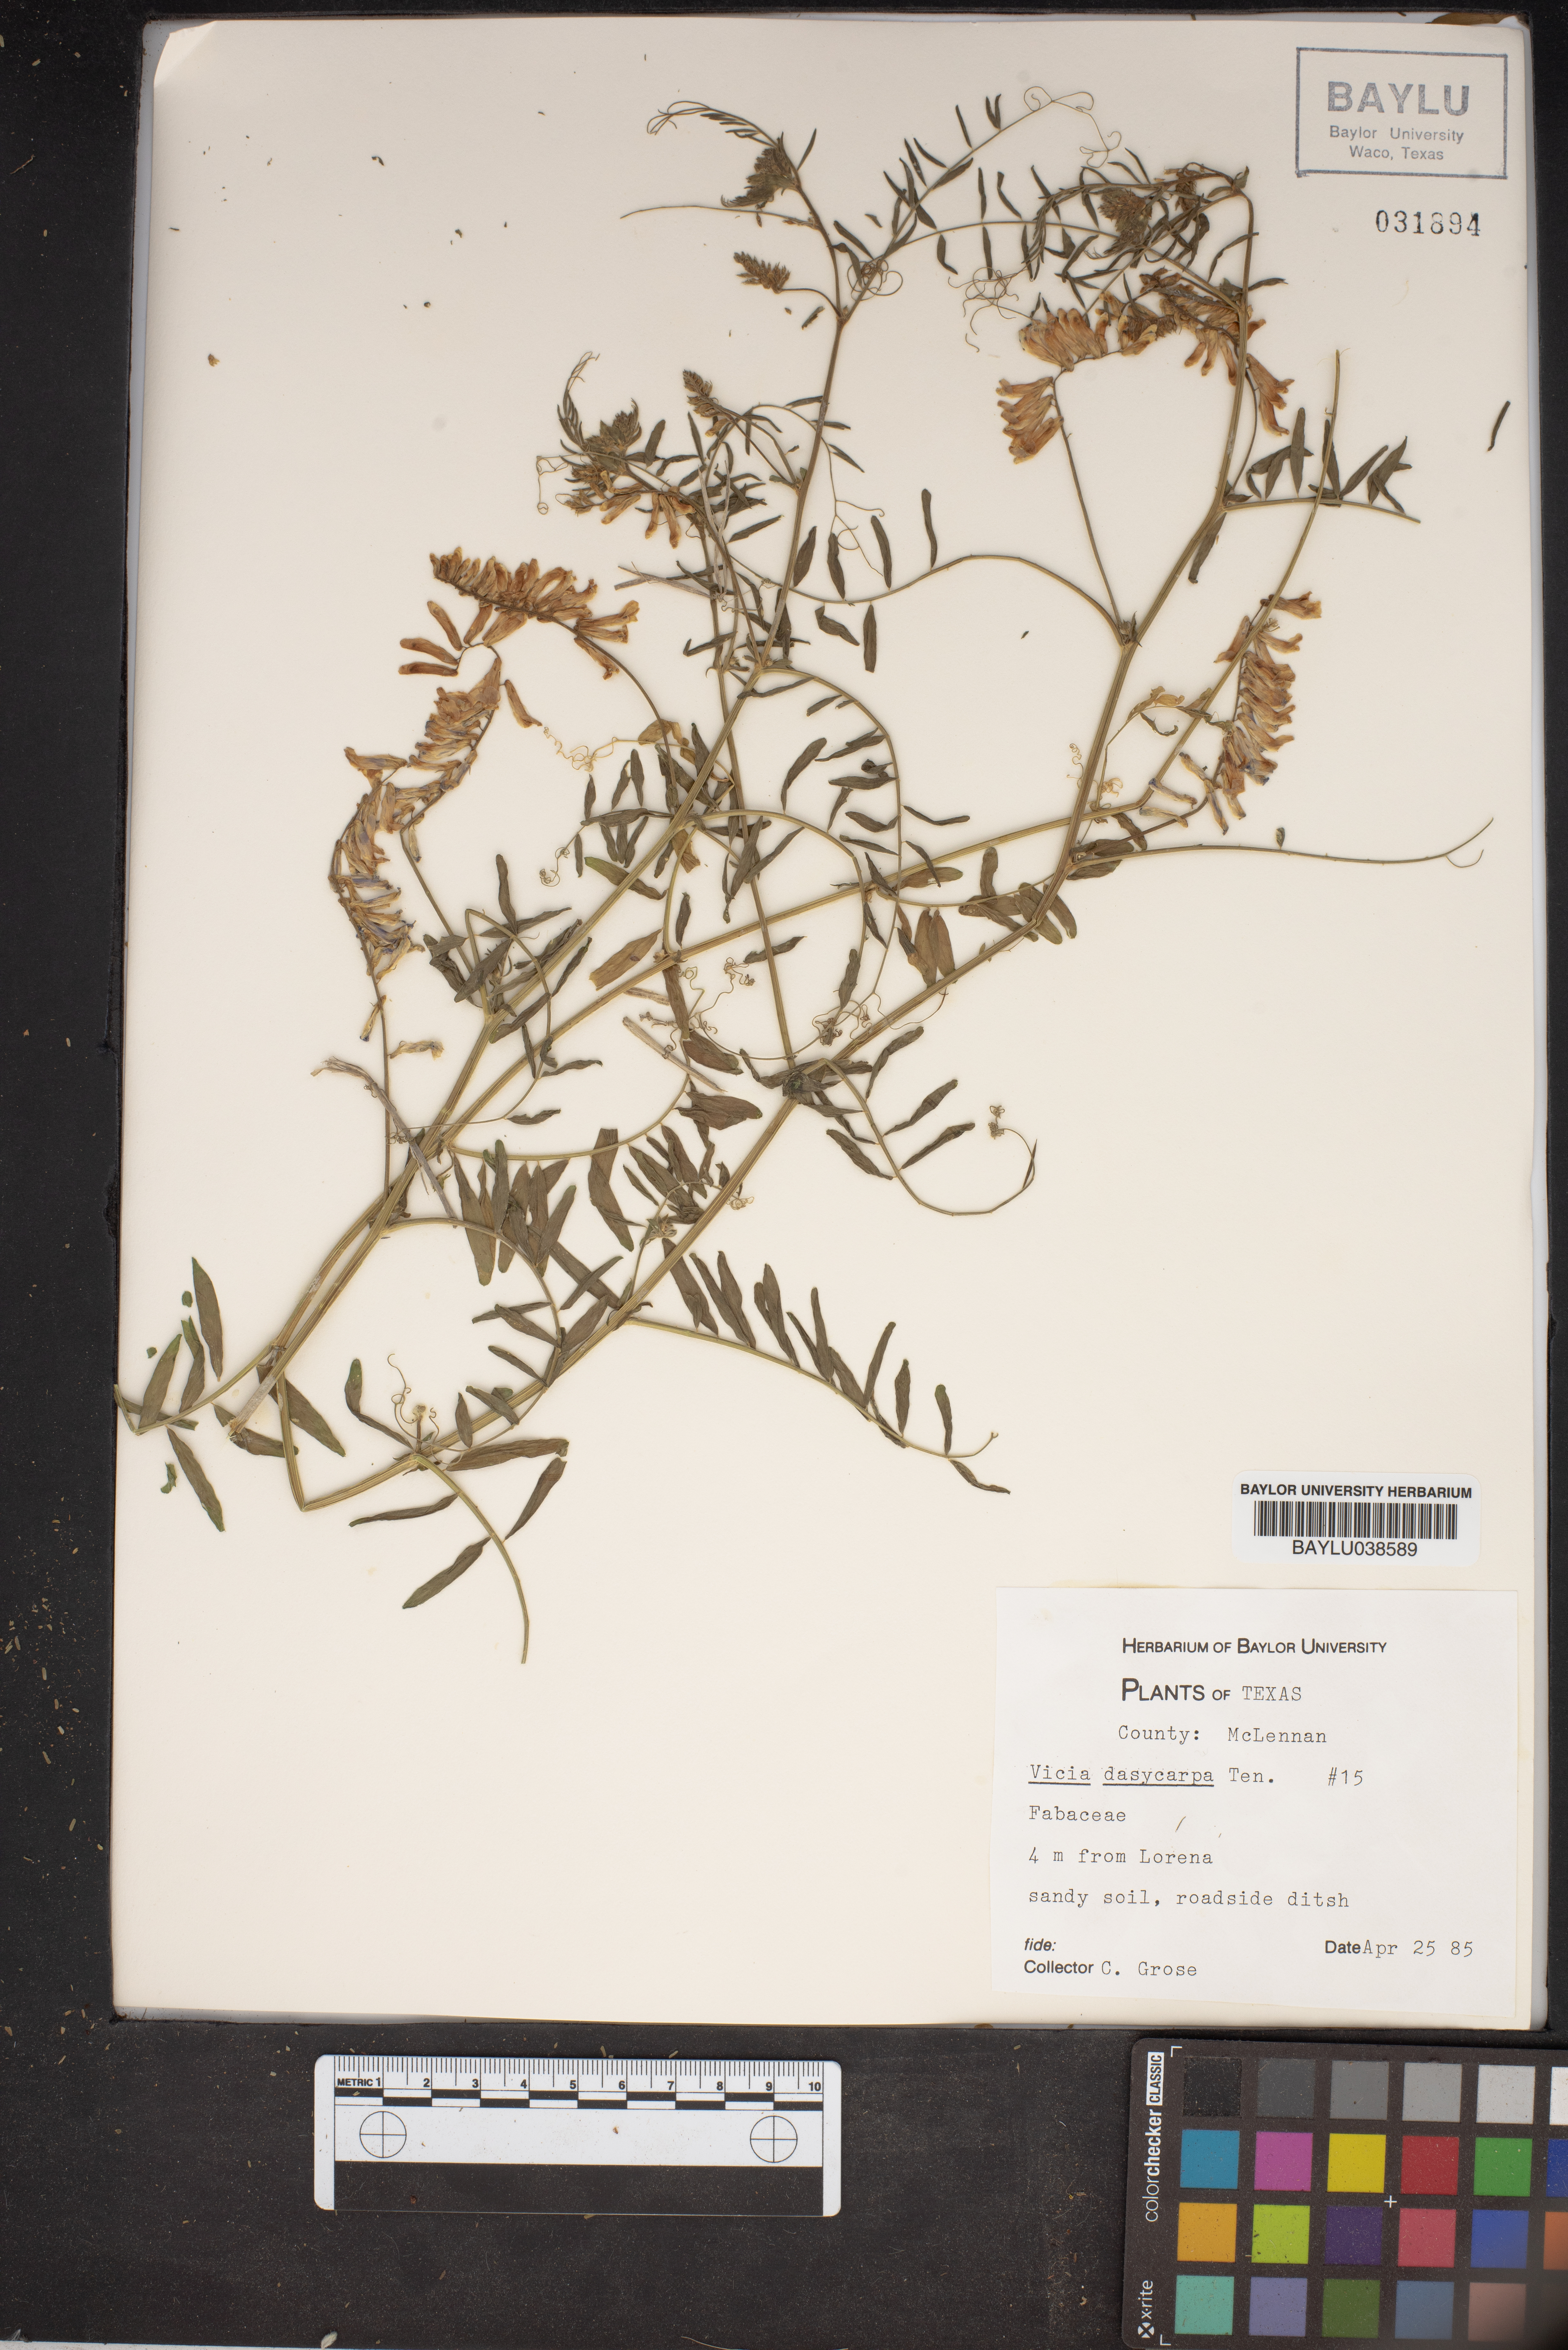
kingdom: Plantae
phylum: Tracheophyta
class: Magnoliopsida
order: Fabales
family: Fabaceae
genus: Vicia
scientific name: Vicia villosa
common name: Fodder vetch
